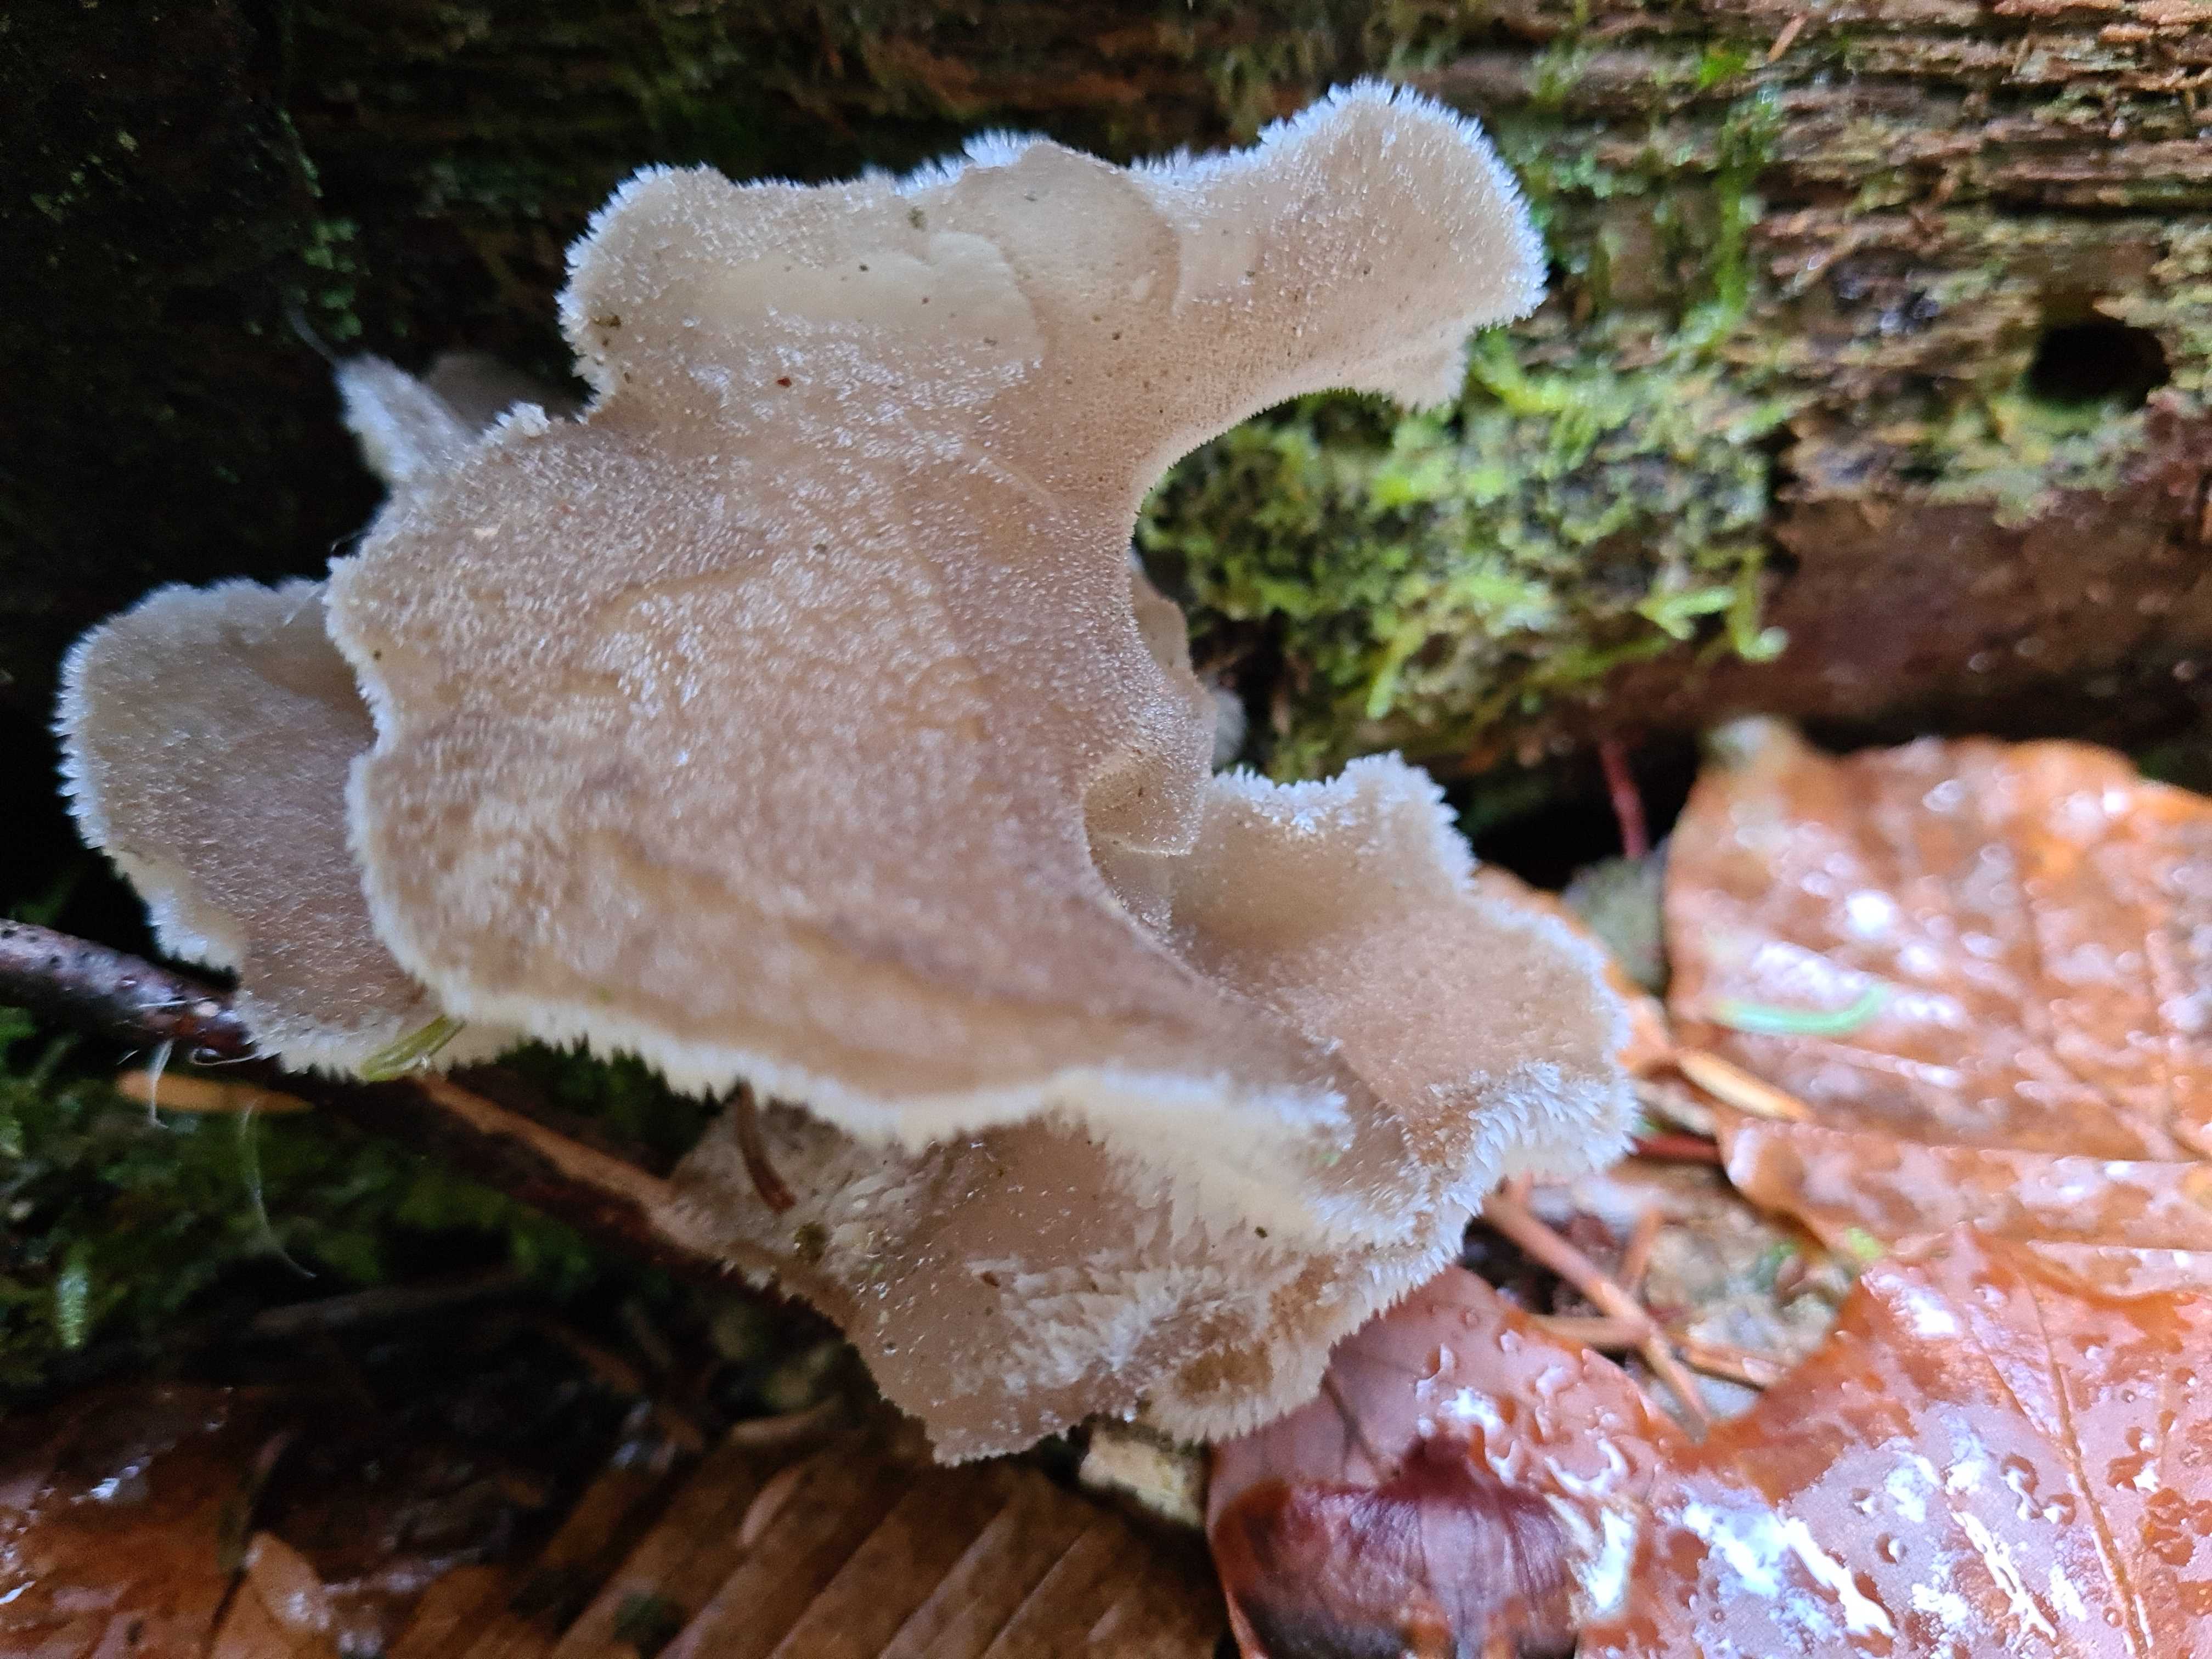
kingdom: Fungi
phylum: Basidiomycota
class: Agaricomycetes
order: Auriculariales
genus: Pseudohydnum
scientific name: Pseudohydnum gelatinosum
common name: bævretand
